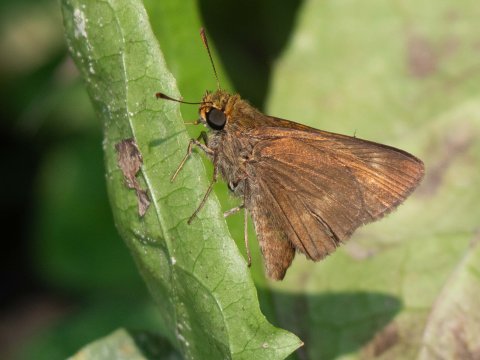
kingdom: Animalia
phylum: Arthropoda
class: Insecta
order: Lepidoptera
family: Hesperiidae
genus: Euphyes
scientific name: Euphyes vestris
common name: Dun Skipper
